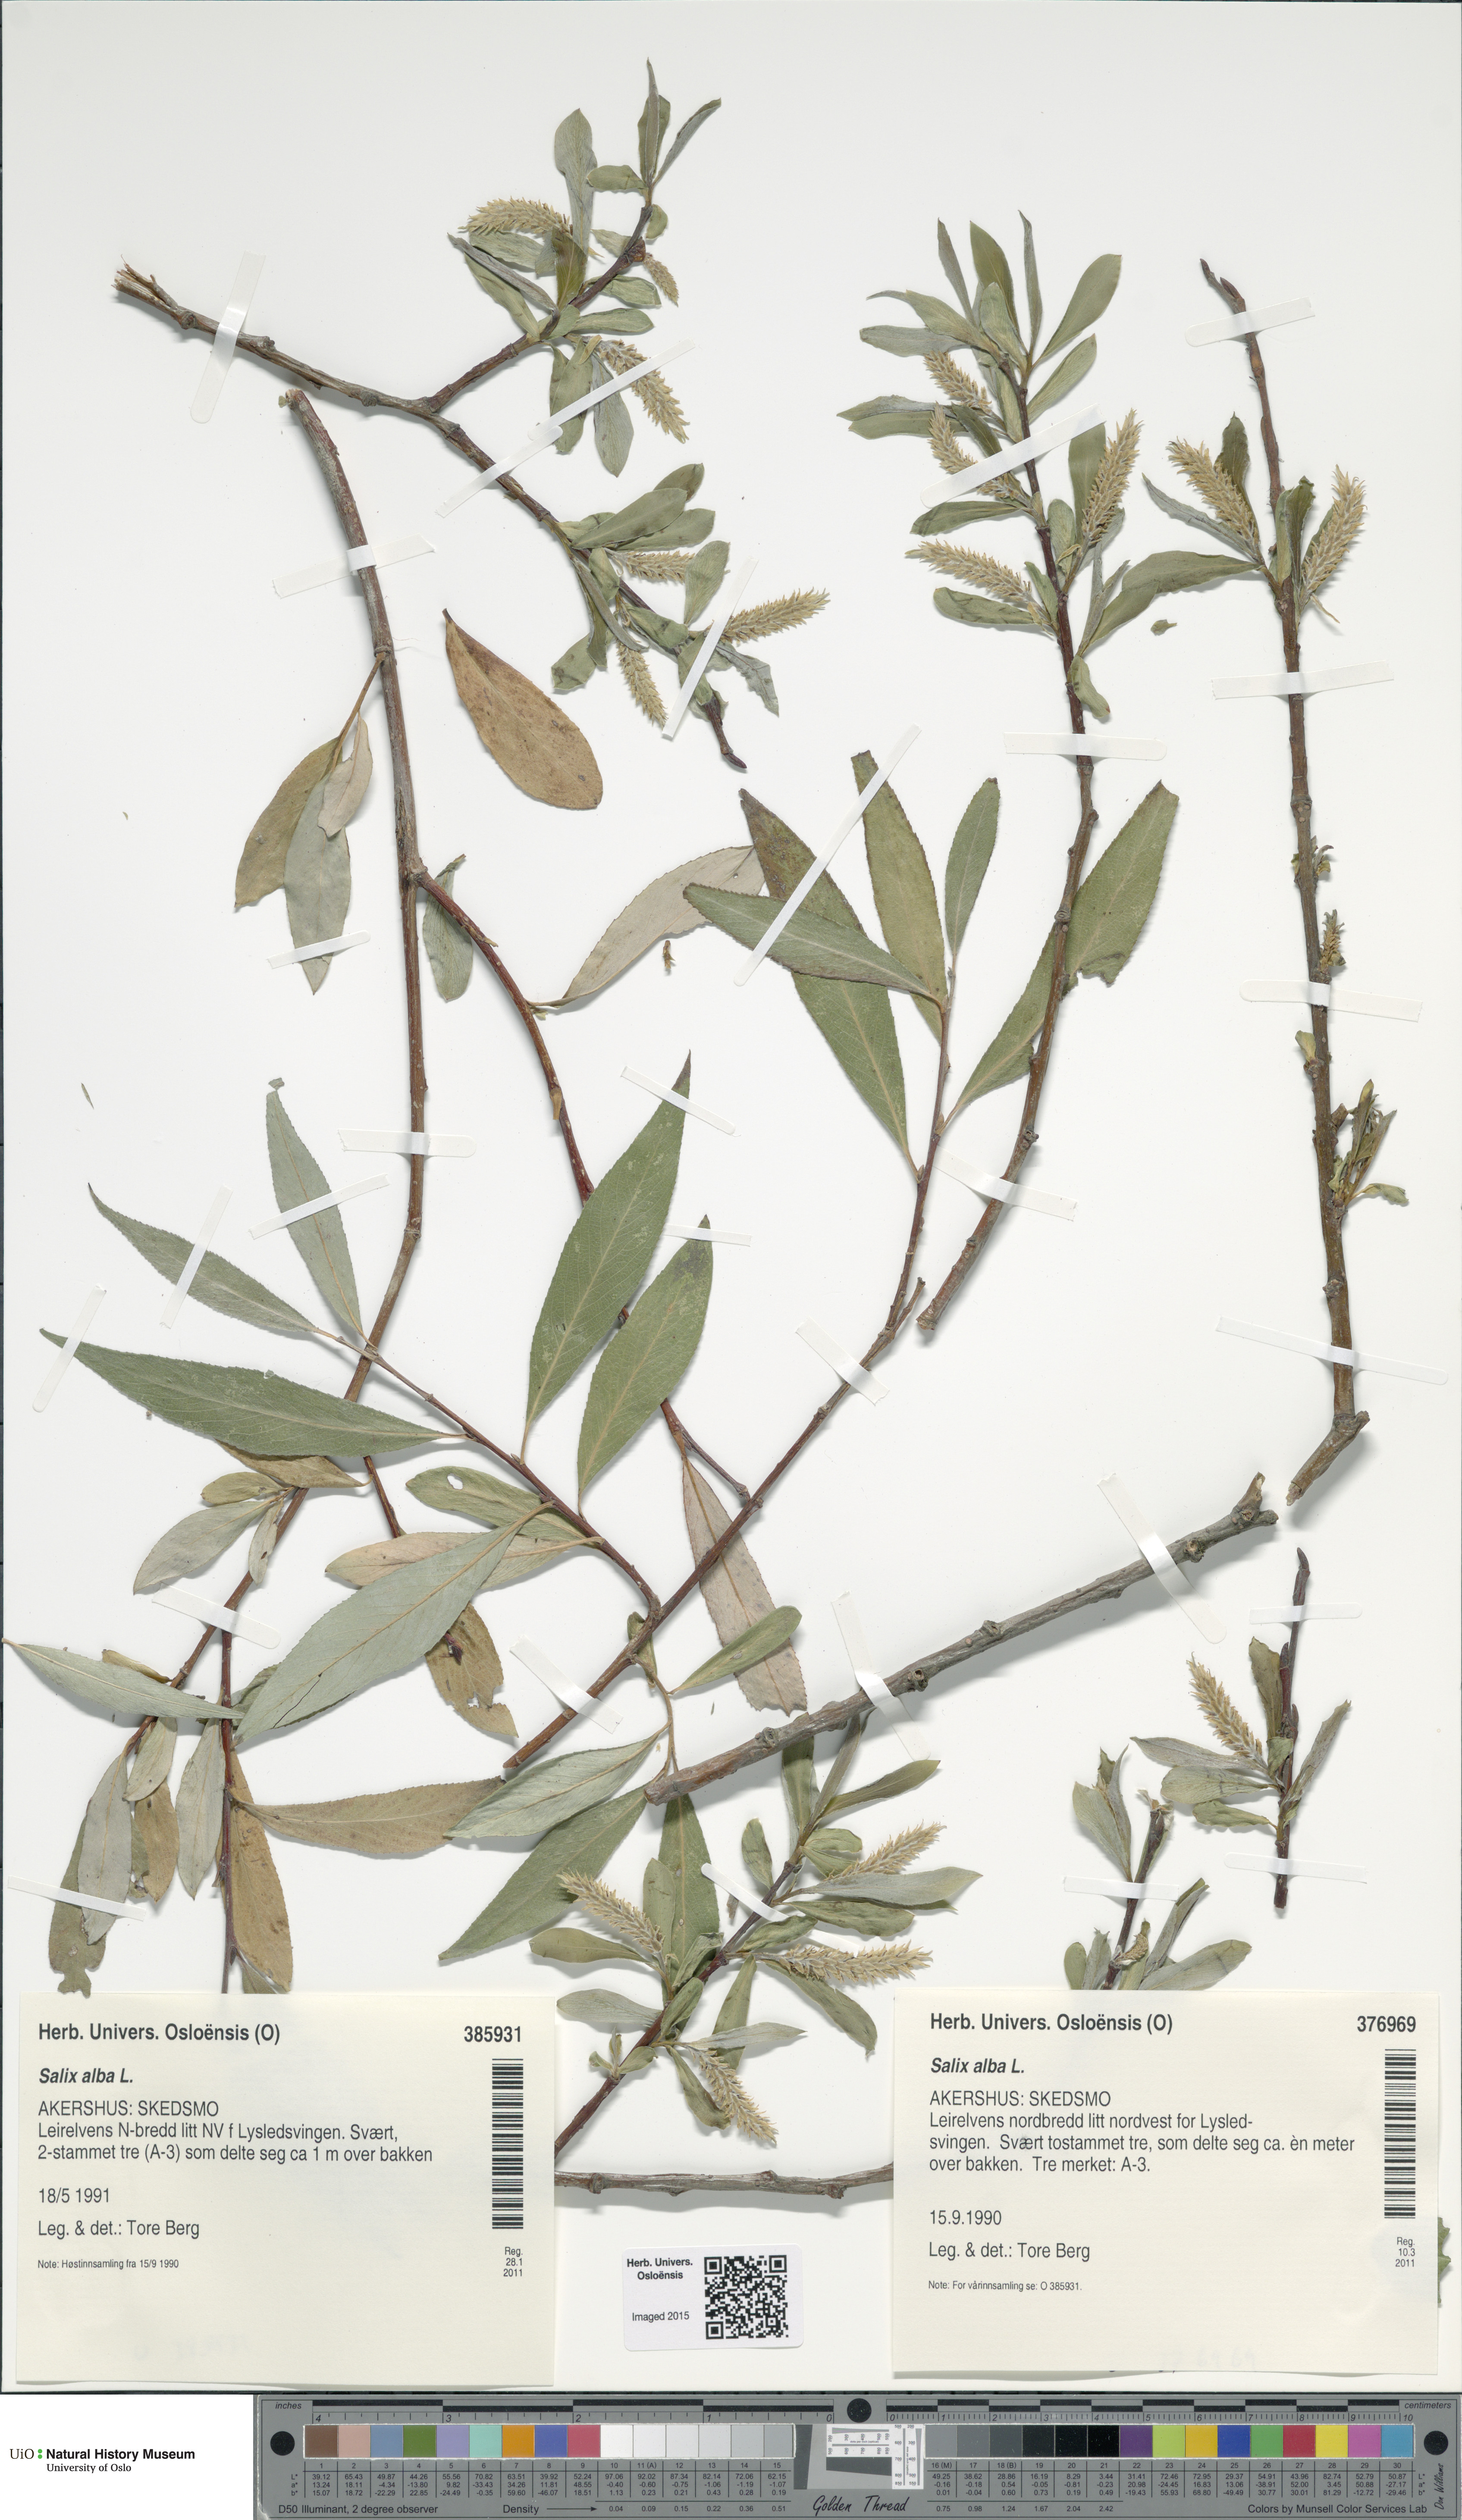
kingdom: Plantae
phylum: Tracheophyta
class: Magnoliopsida
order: Malpighiales
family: Salicaceae
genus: Salix
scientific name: Salix alba
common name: White willow
